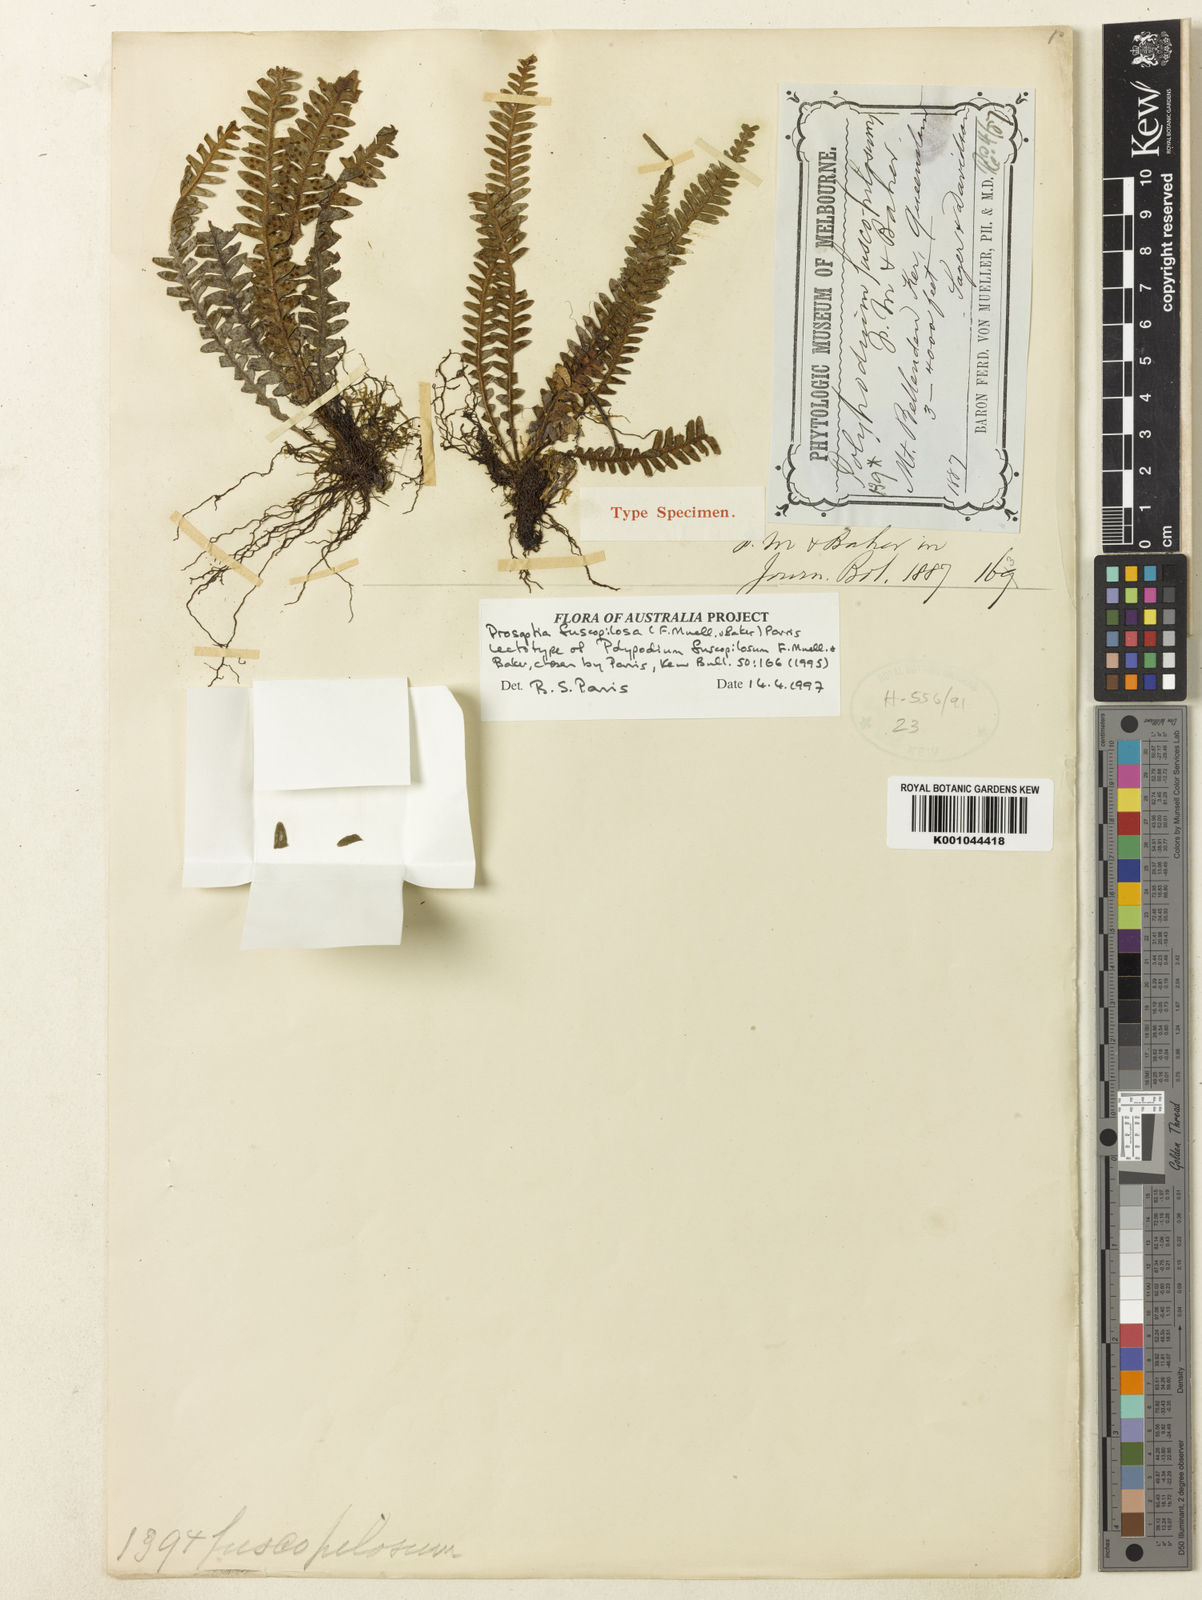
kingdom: Plantae
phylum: Tracheophyta
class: Polypodiopsida
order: Polypodiales
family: Polypodiaceae
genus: Prosaptia
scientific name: Prosaptia fuscopilosa
